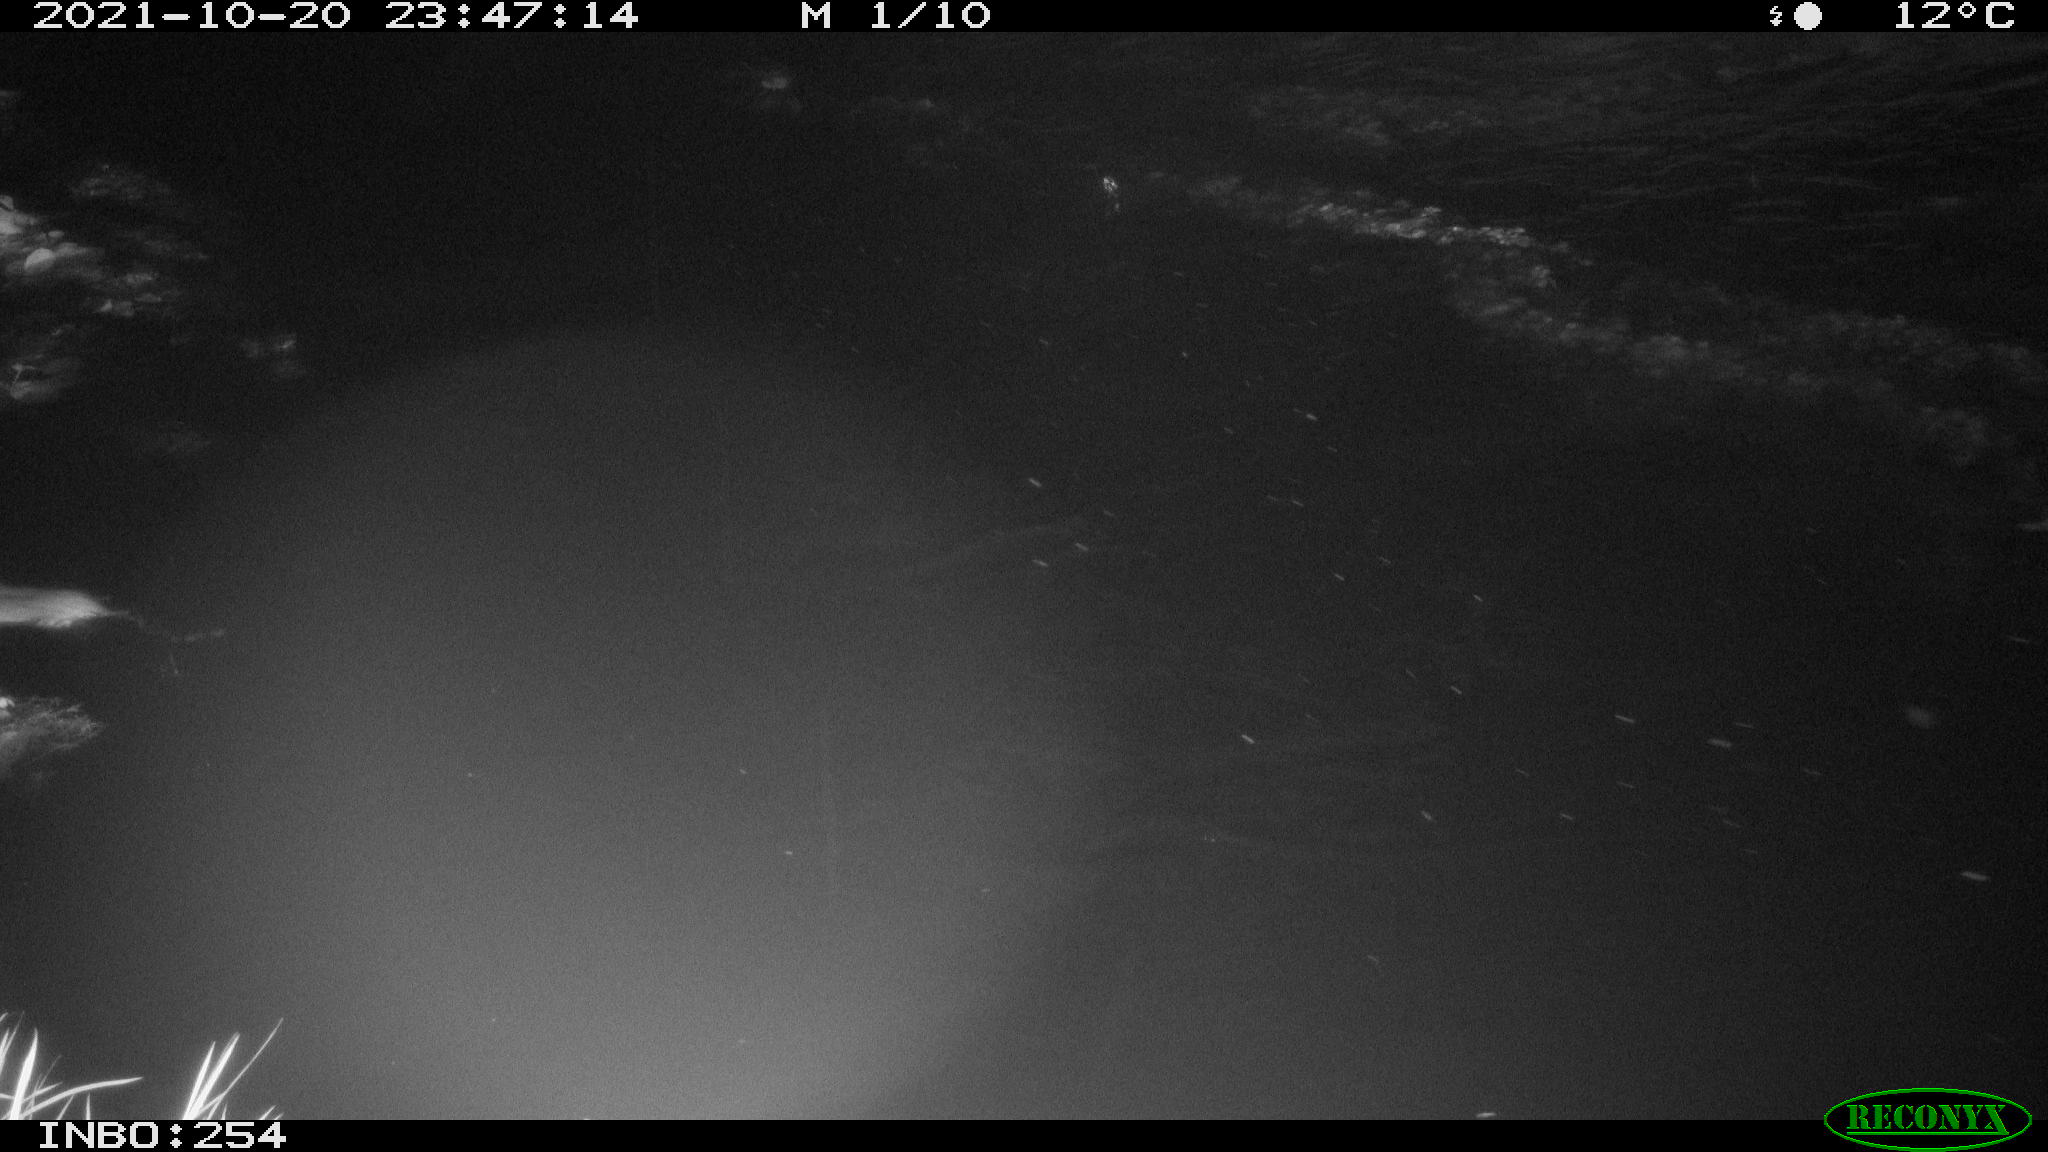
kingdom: Animalia
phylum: Chordata
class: Mammalia
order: Rodentia
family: Muridae
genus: Rattus
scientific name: Rattus norvegicus
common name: Brown rat
